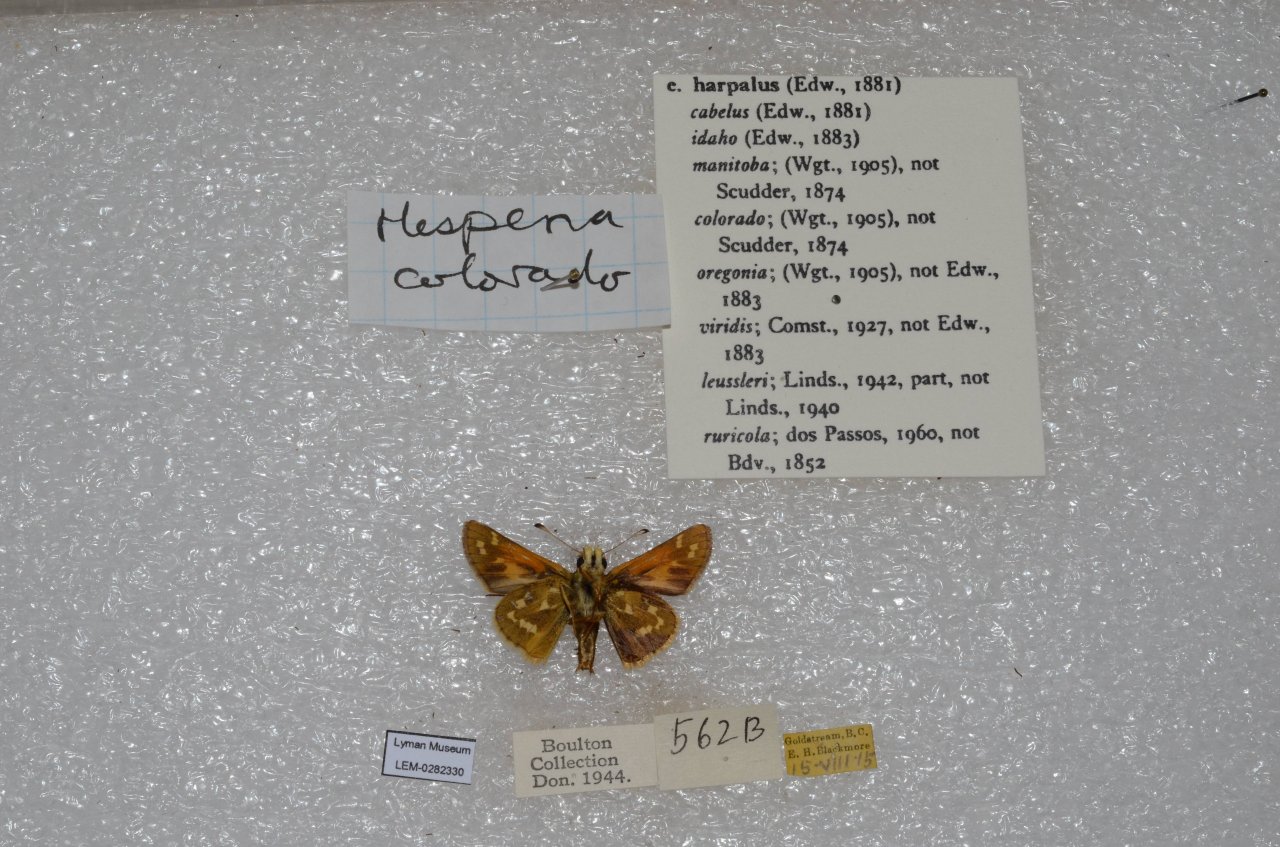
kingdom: Animalia
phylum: Arthropoda
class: Insecta
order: Lepidoptera
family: Hesperiidae
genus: Hesperia
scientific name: Hesperia comma
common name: Western Branded Skipper
